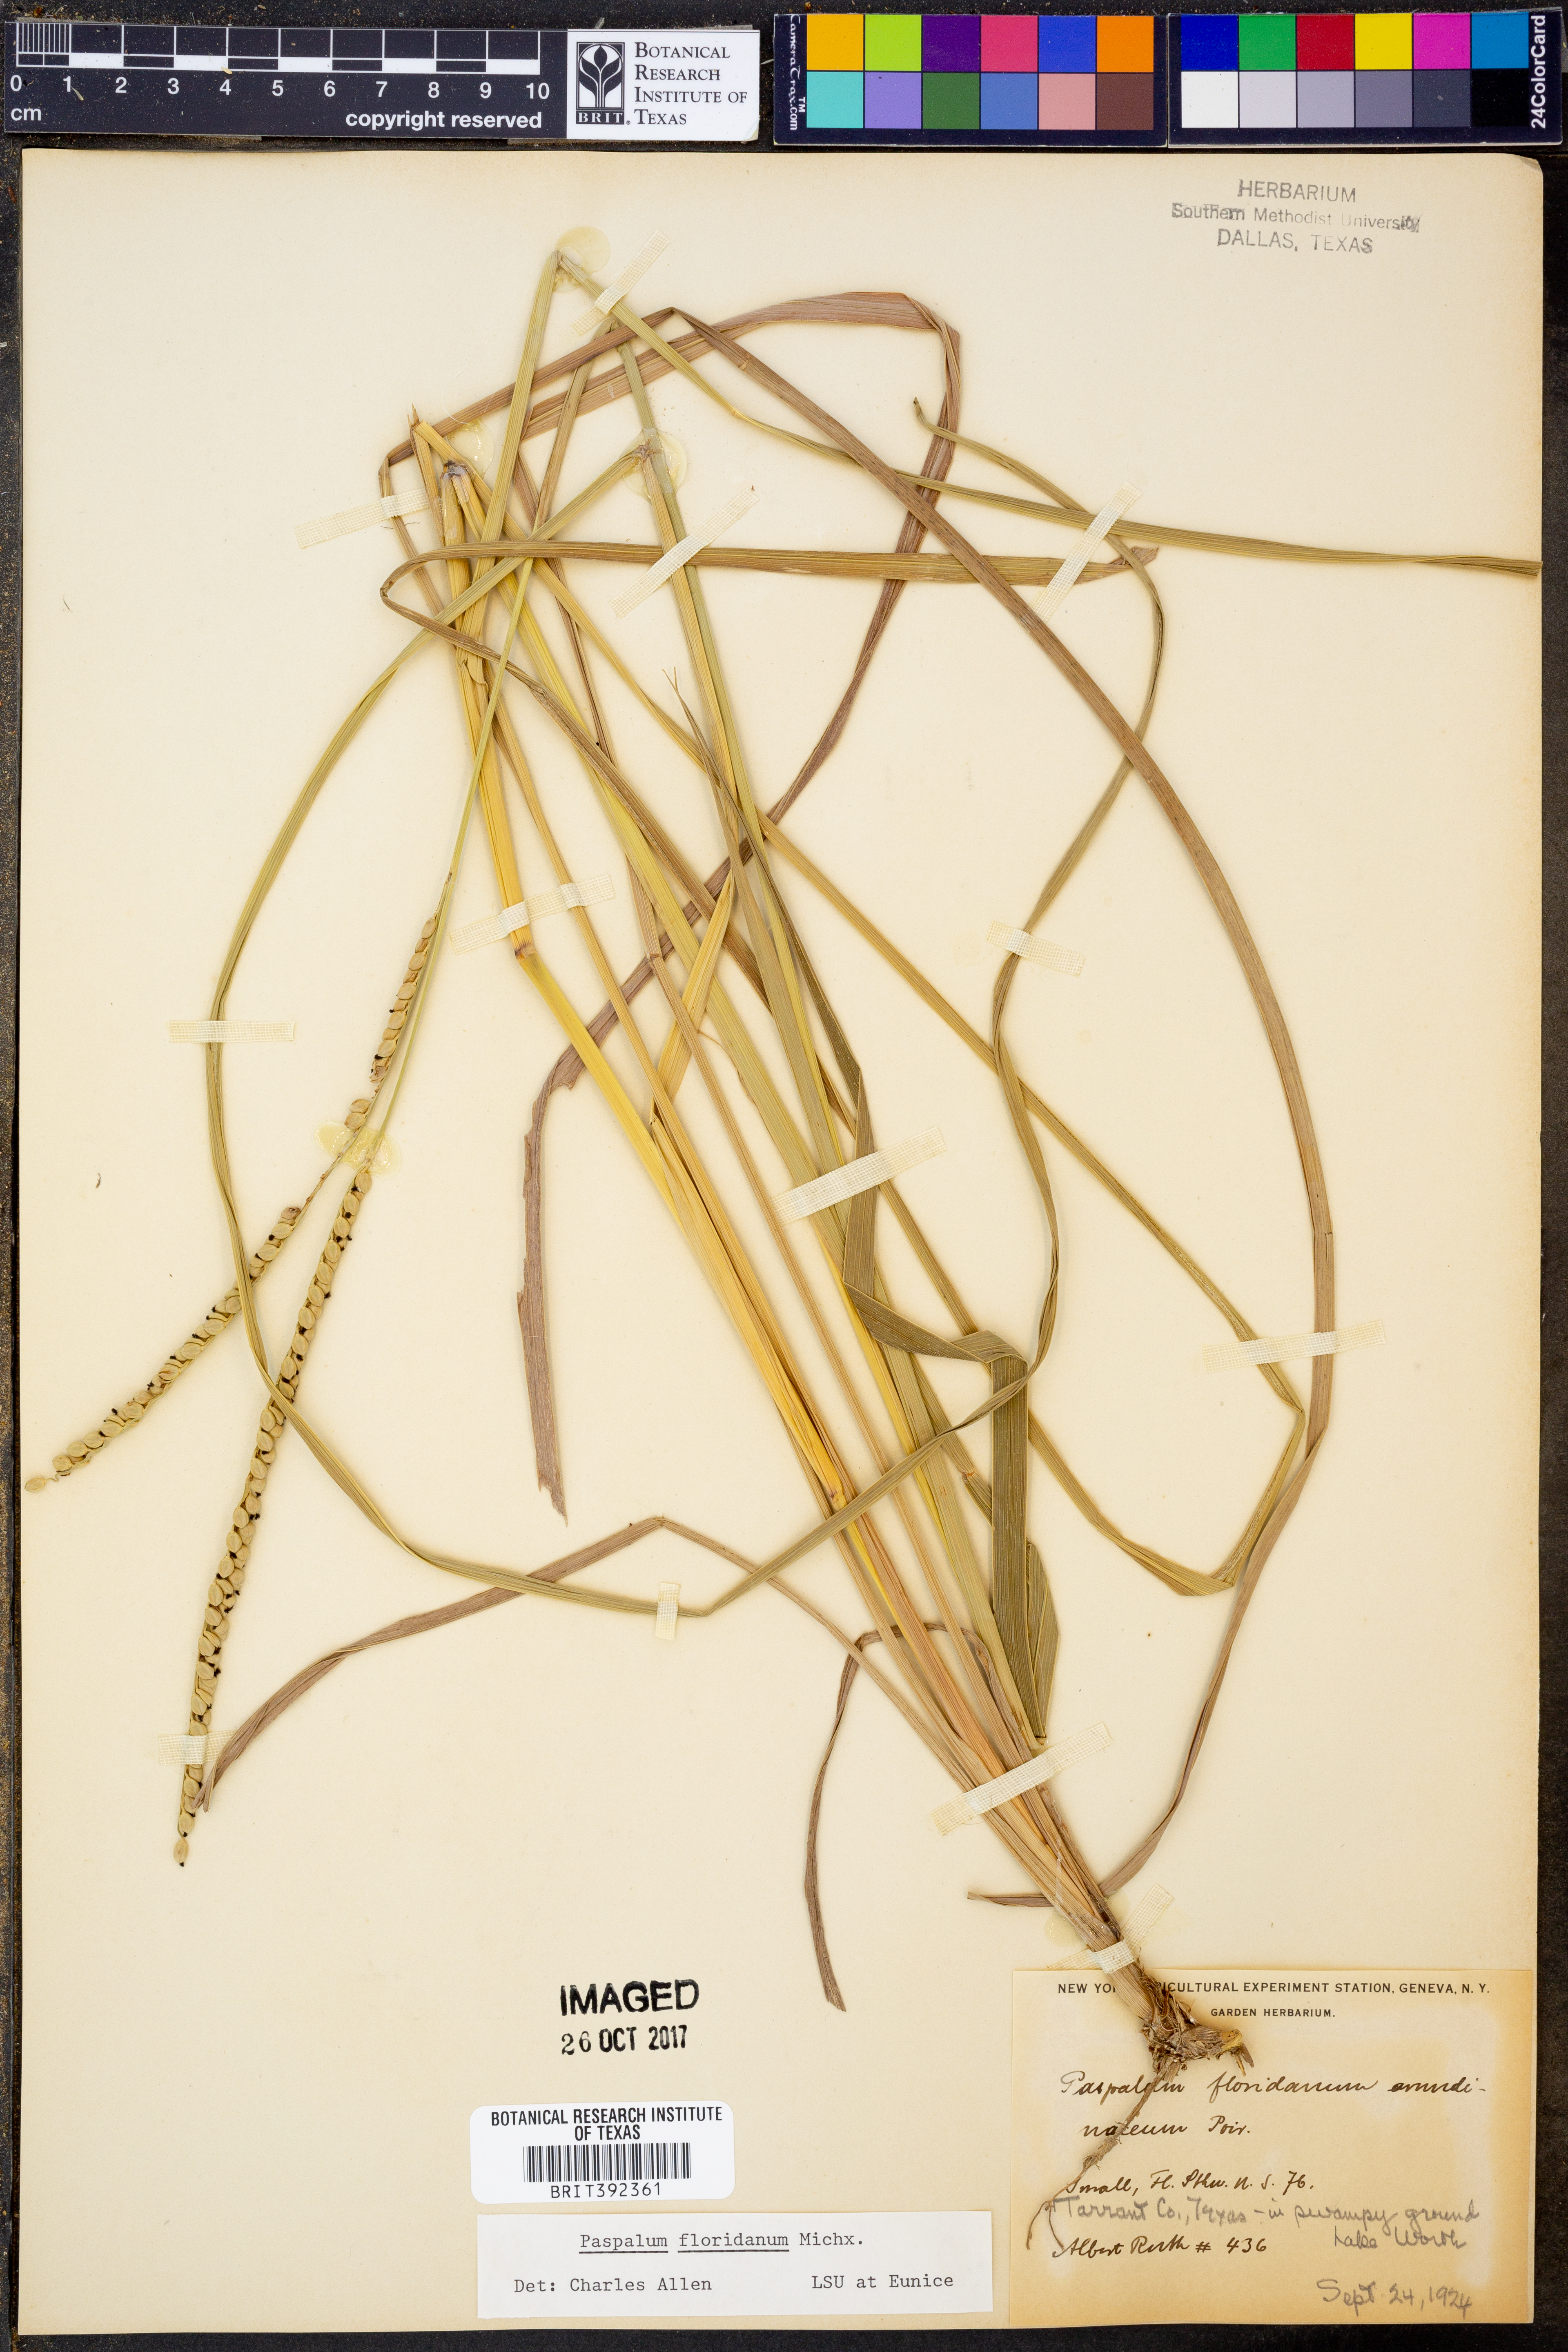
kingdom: Plantae
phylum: Tracheophyta
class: Liliopsida
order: Poales
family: Poaceae
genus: Paspalum
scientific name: Paspalum floridanum
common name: Florida paspalum
